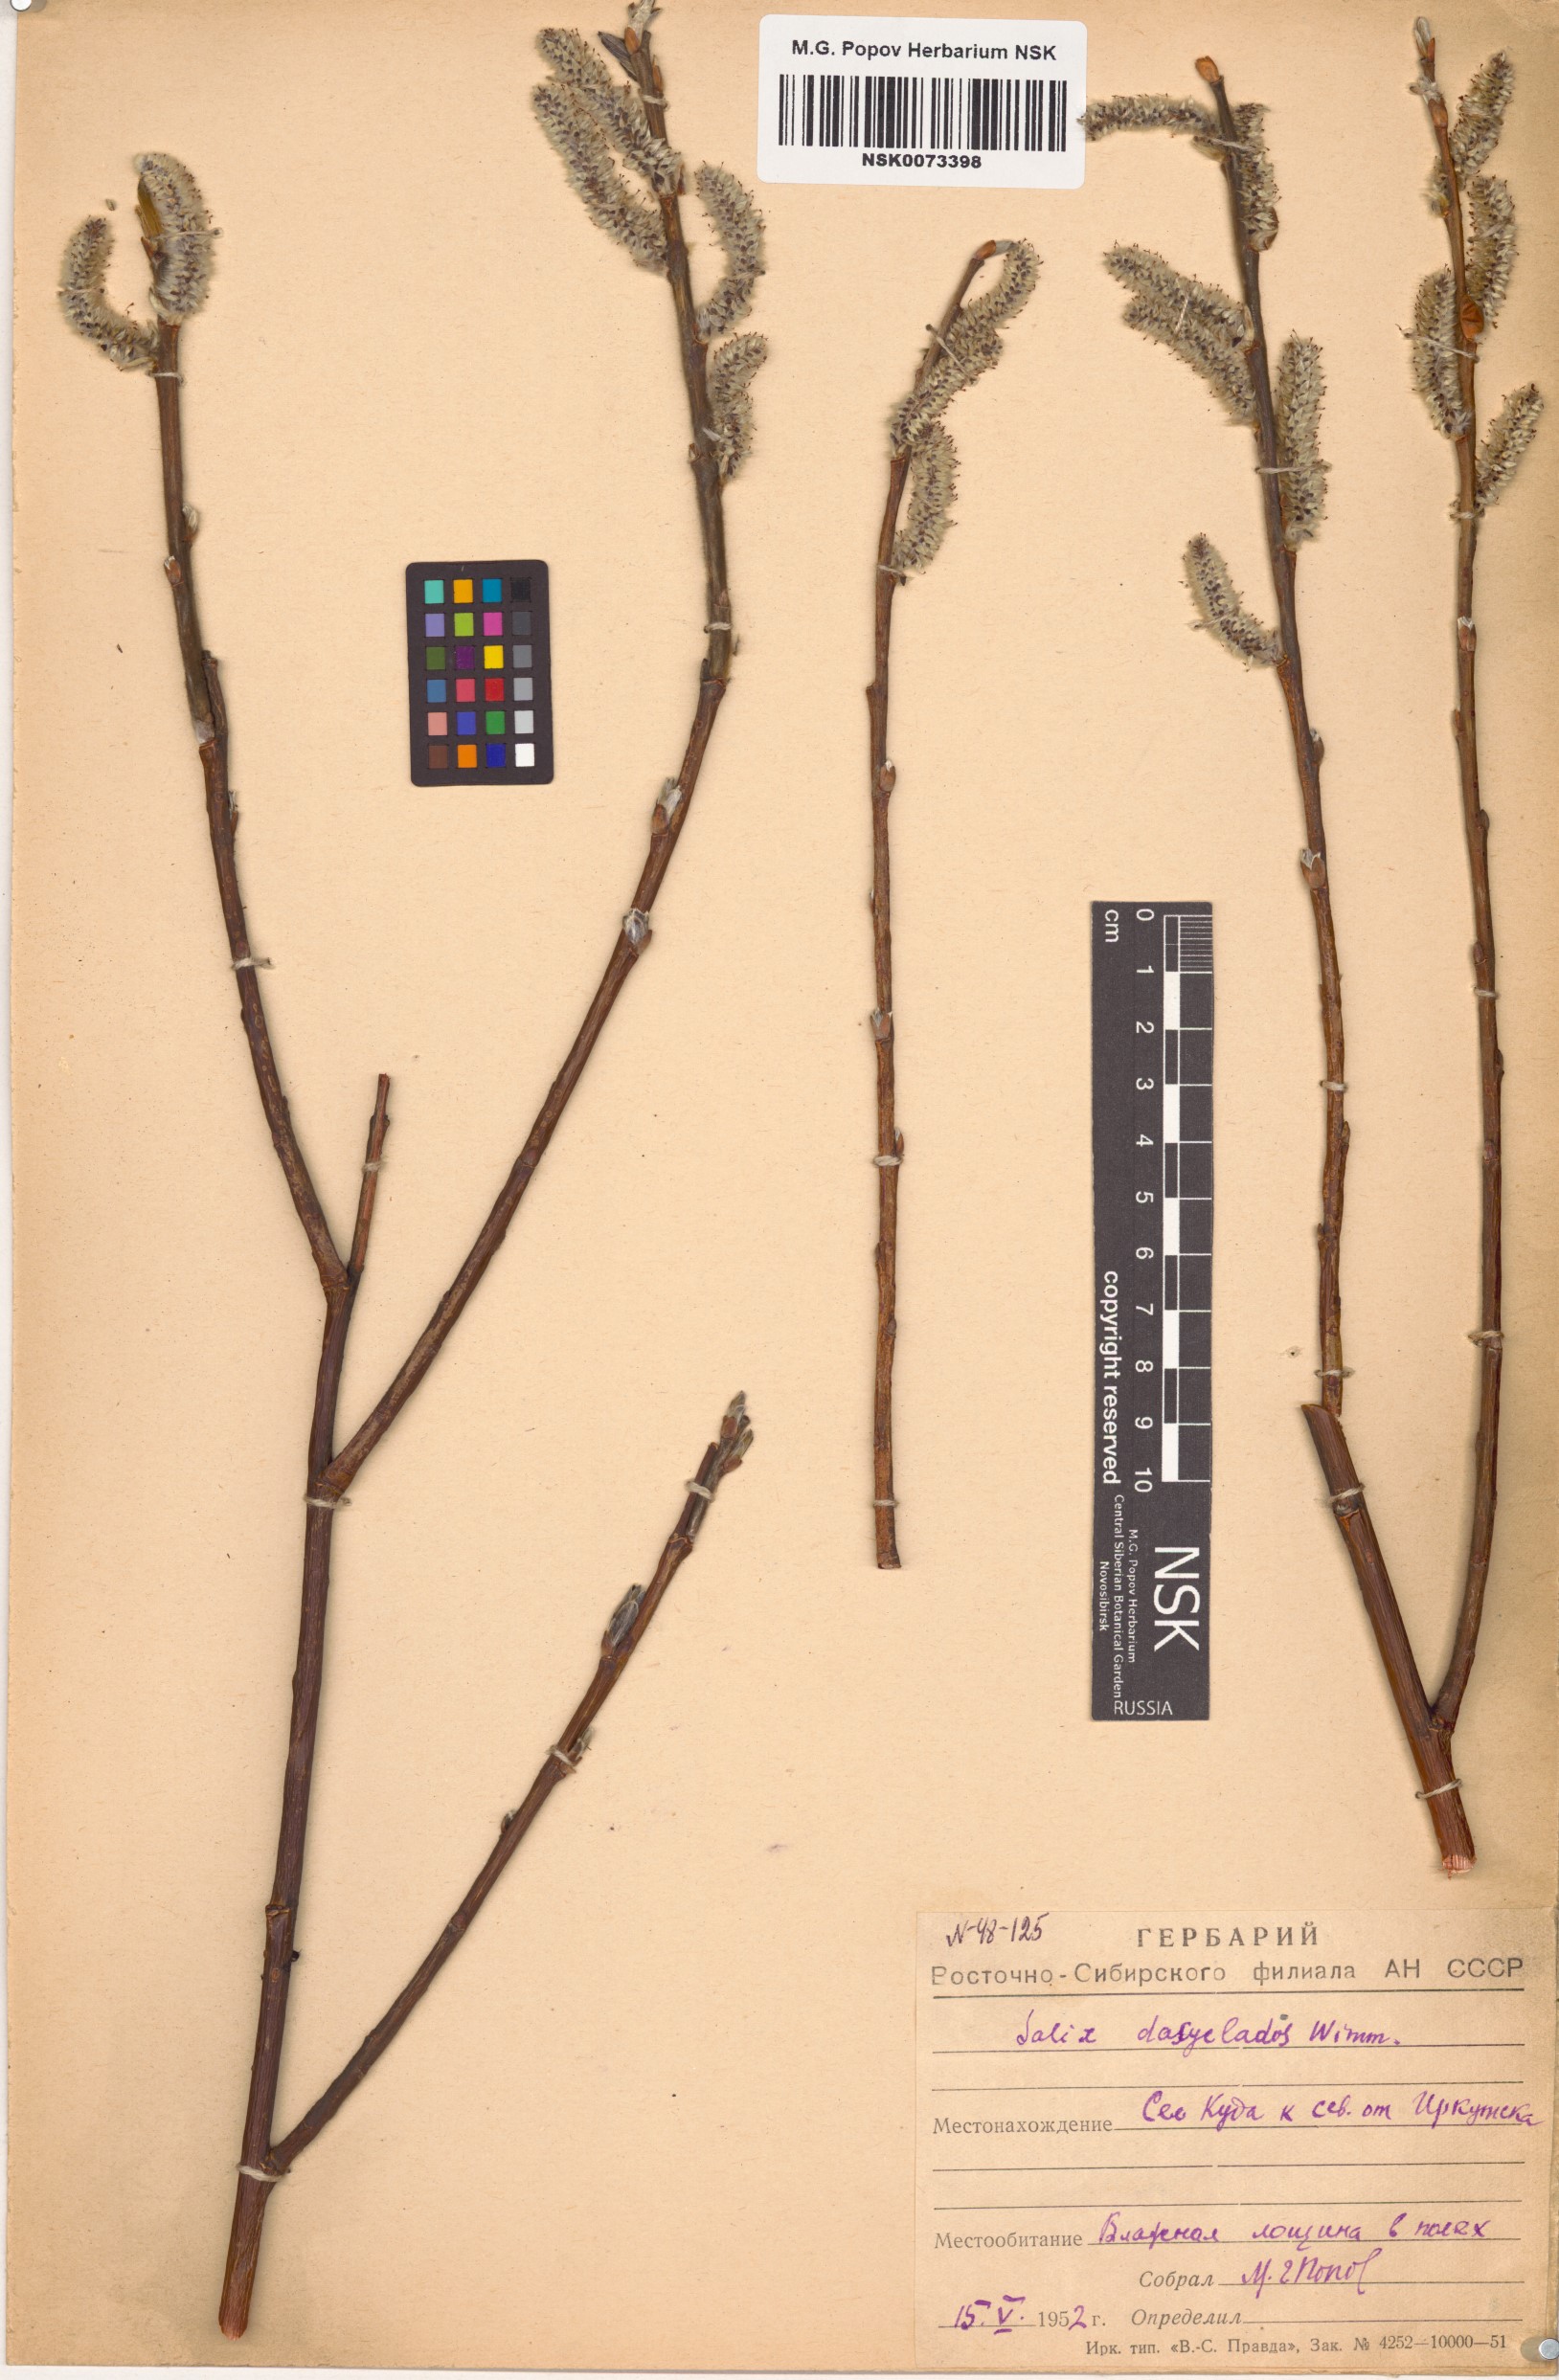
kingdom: Plantae
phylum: Tracheophyta
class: Magnoliopsida
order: Malpighiales
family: Salicaceae
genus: Salix
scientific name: Salix gmelinii
